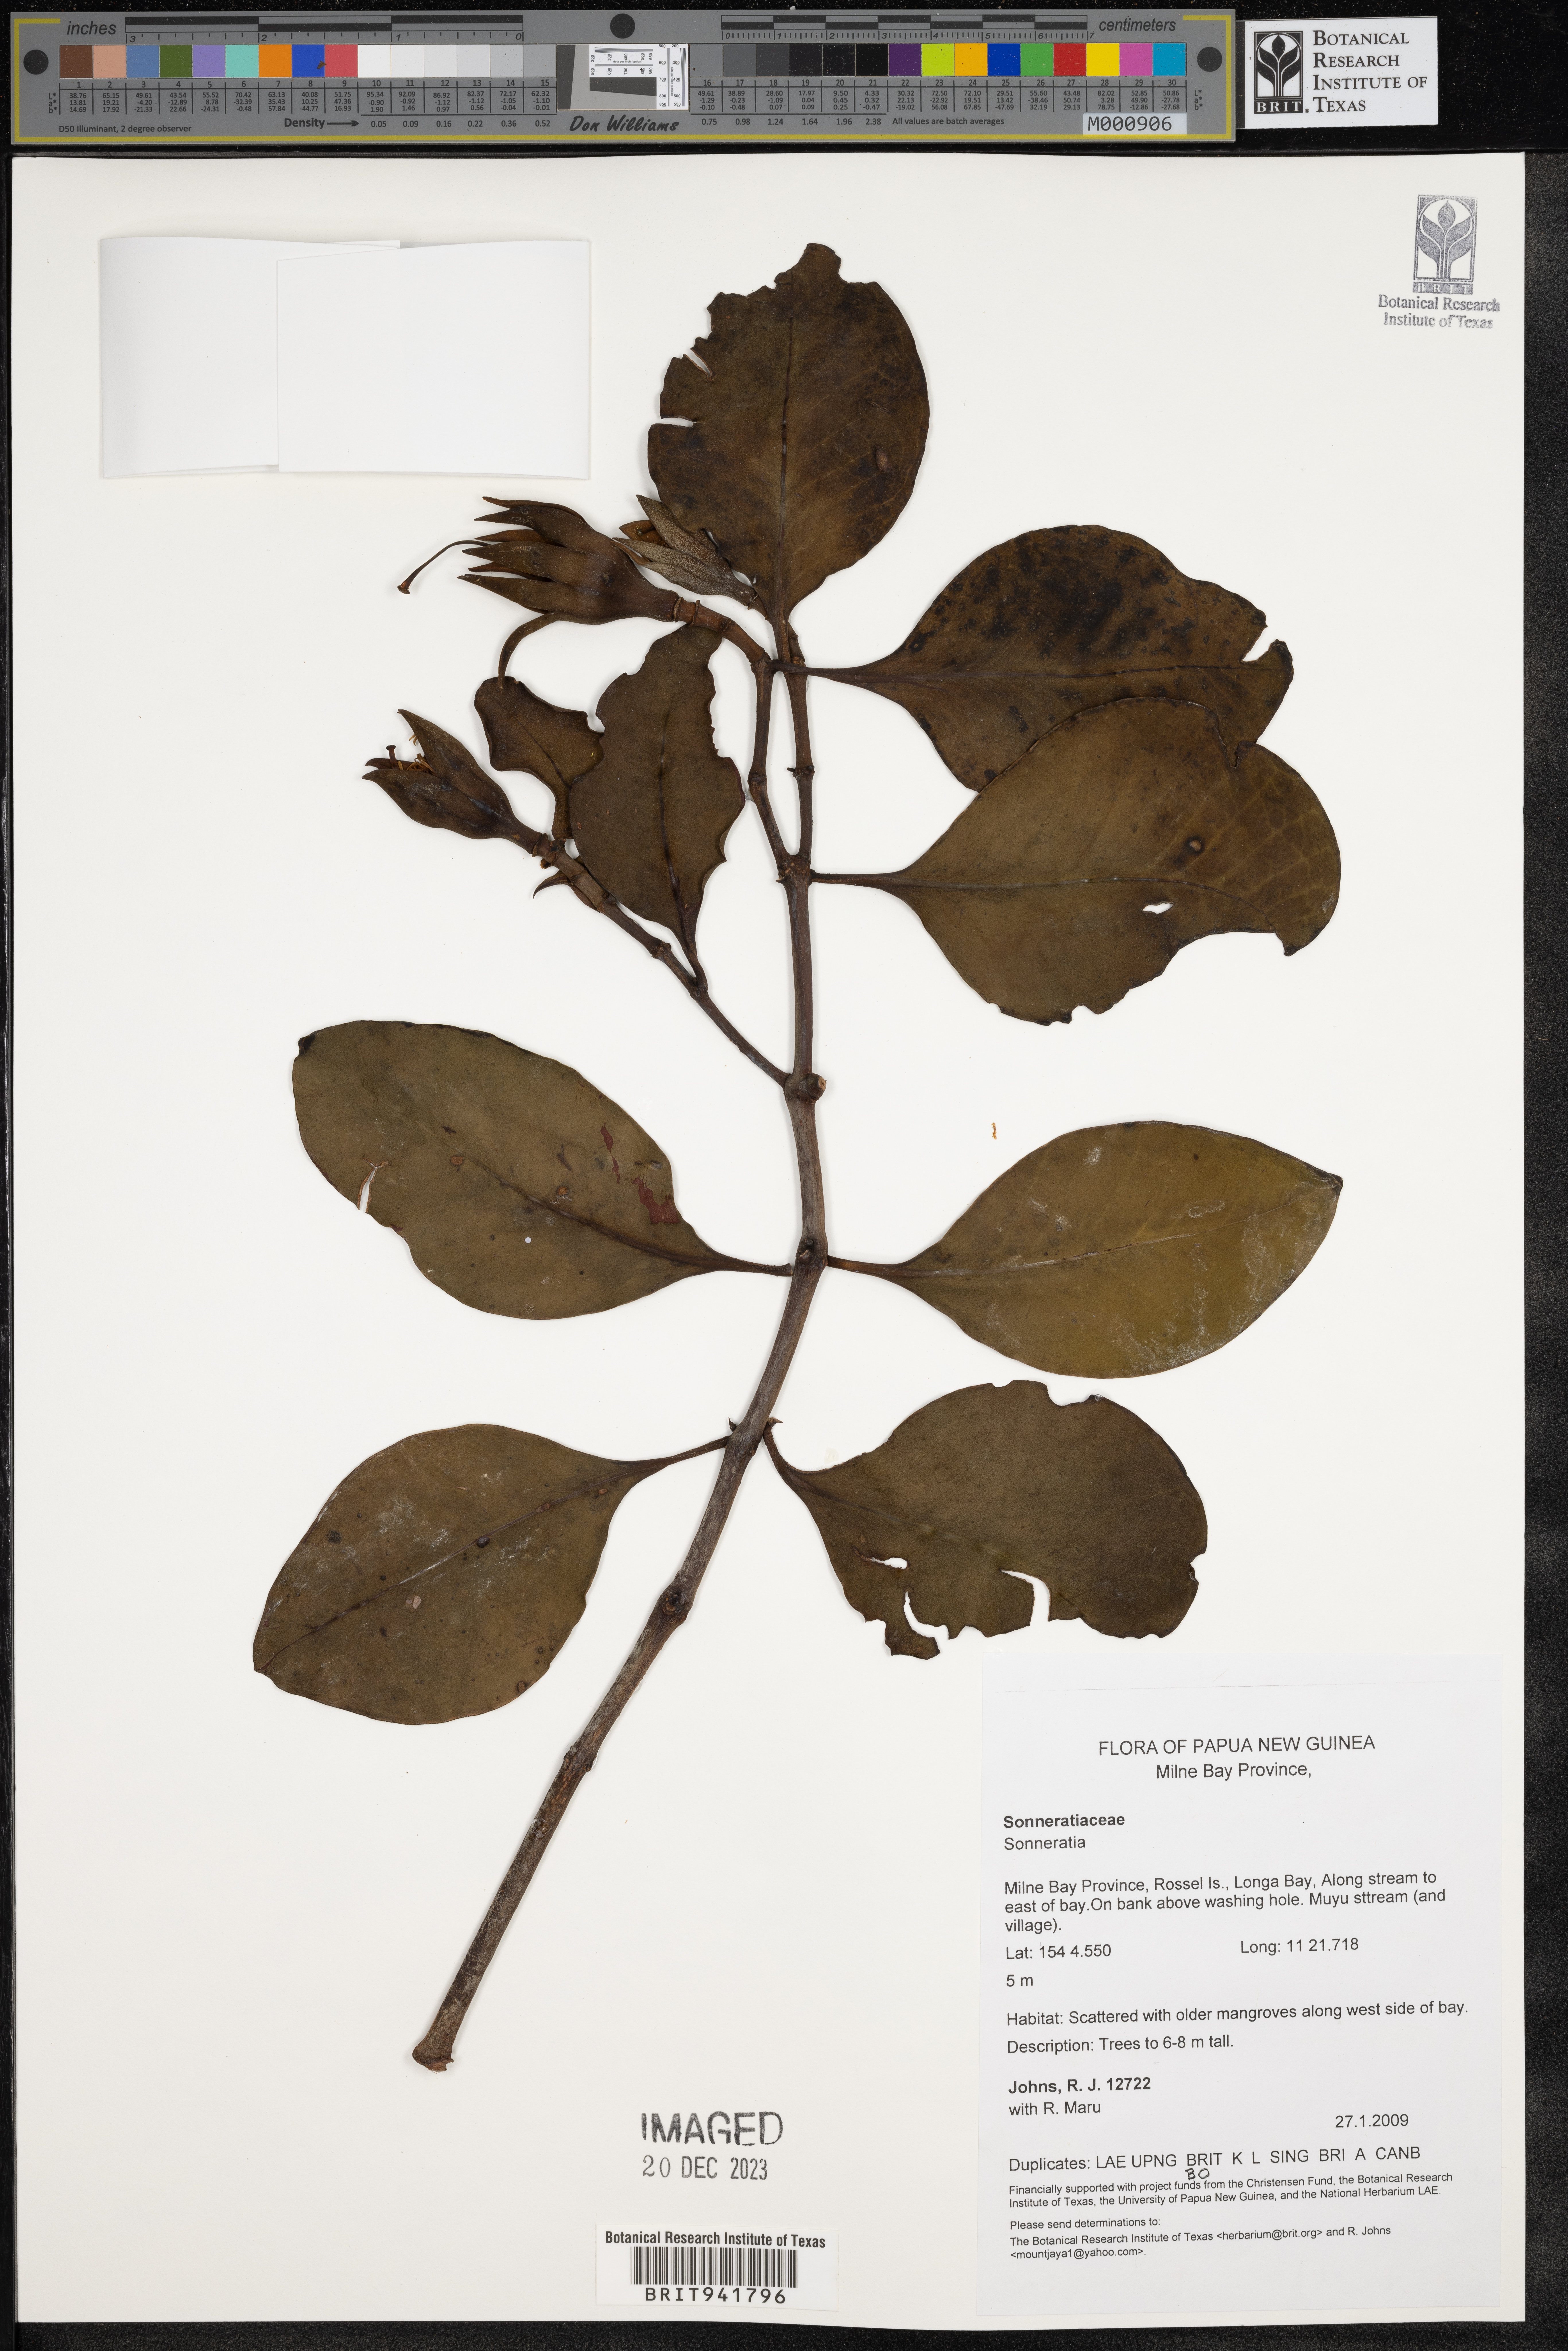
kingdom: Plantae
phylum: Tracheophyta
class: Magnoliopsida
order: Myrtales
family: Lythraceae
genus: Sonneratia
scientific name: Sonneratia
